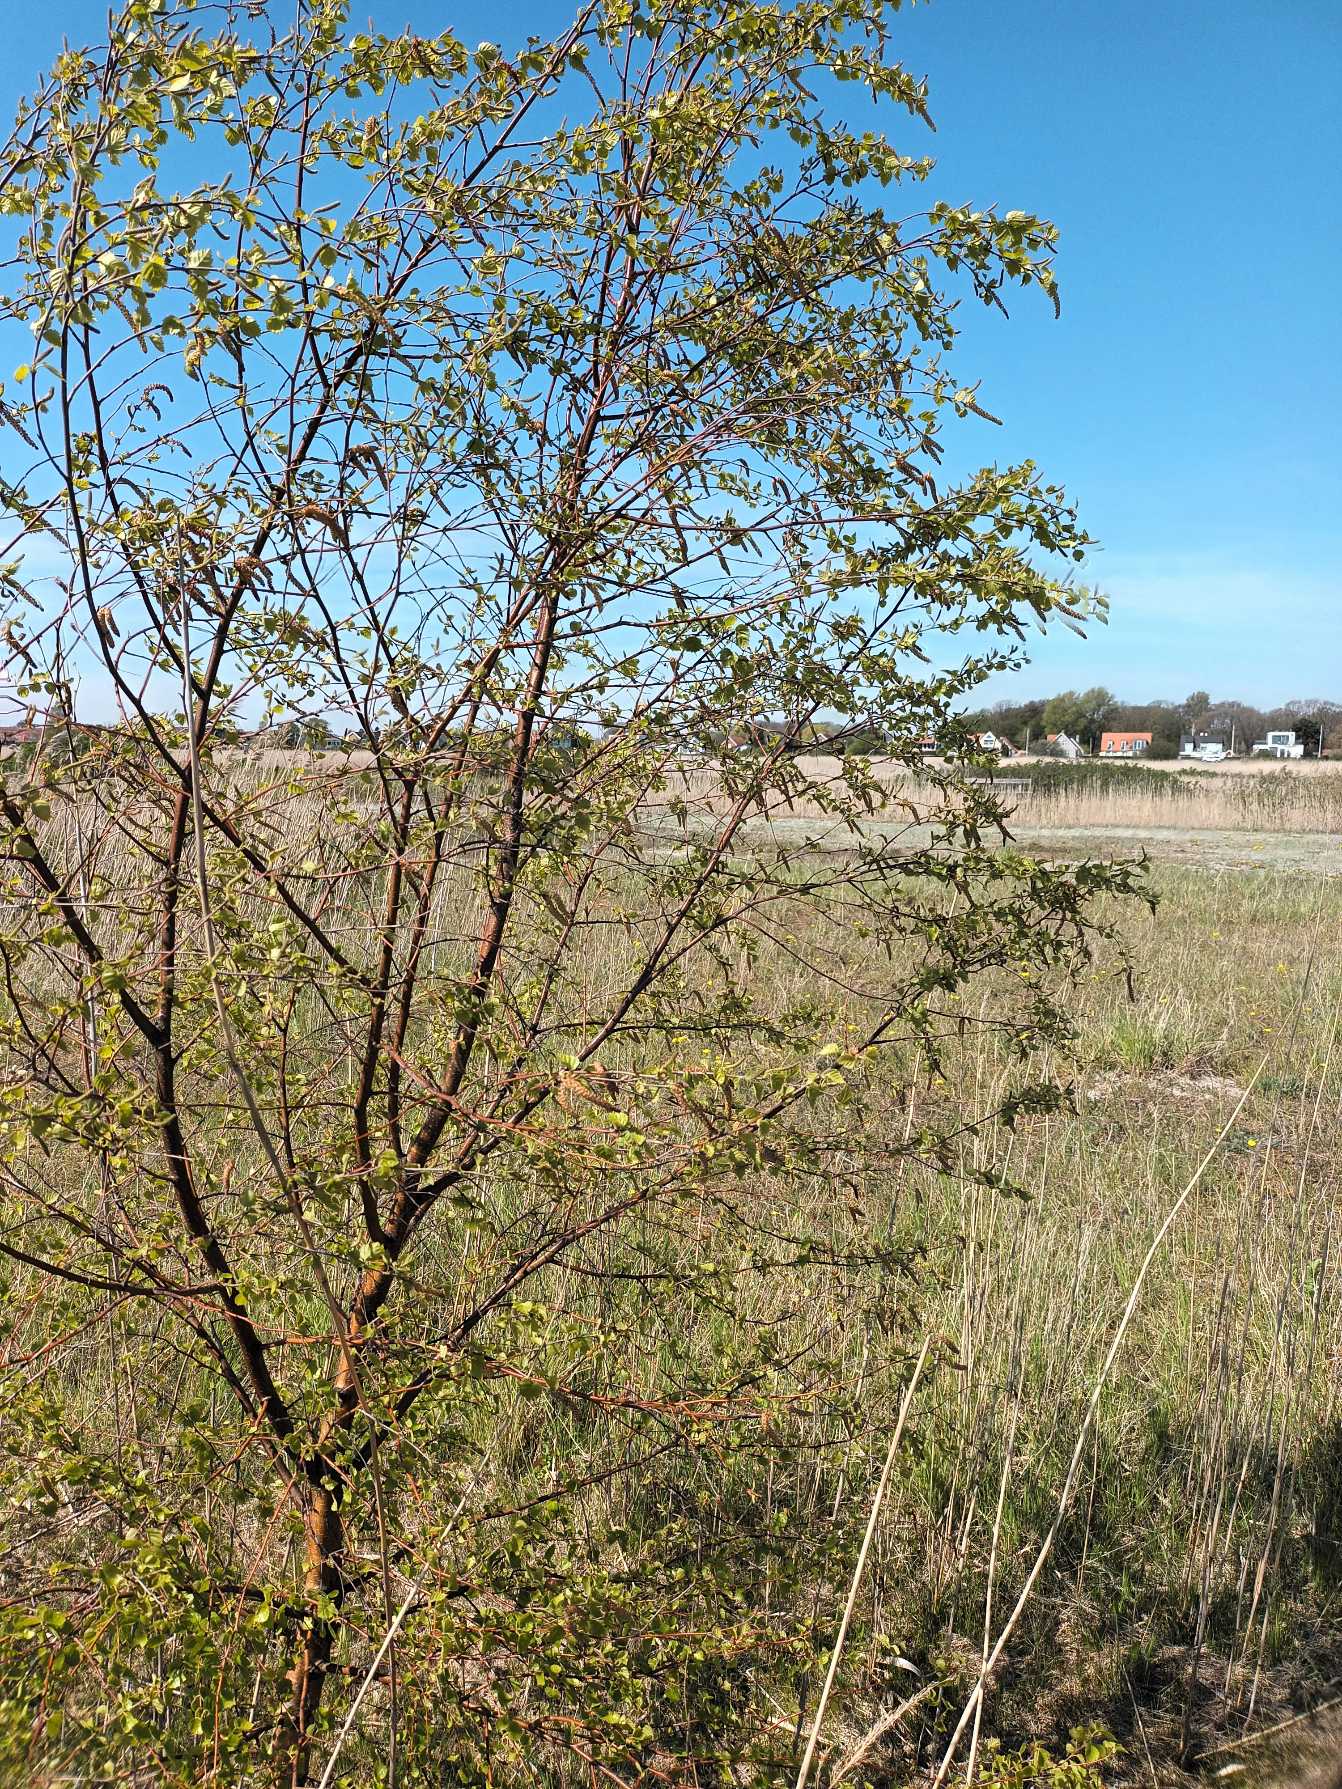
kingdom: Plantae
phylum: Tracheophyta
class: Magnoliopsida
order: Fagales
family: Betulaceae
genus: Betula
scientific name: Betula pendula
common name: Vorte-birk
